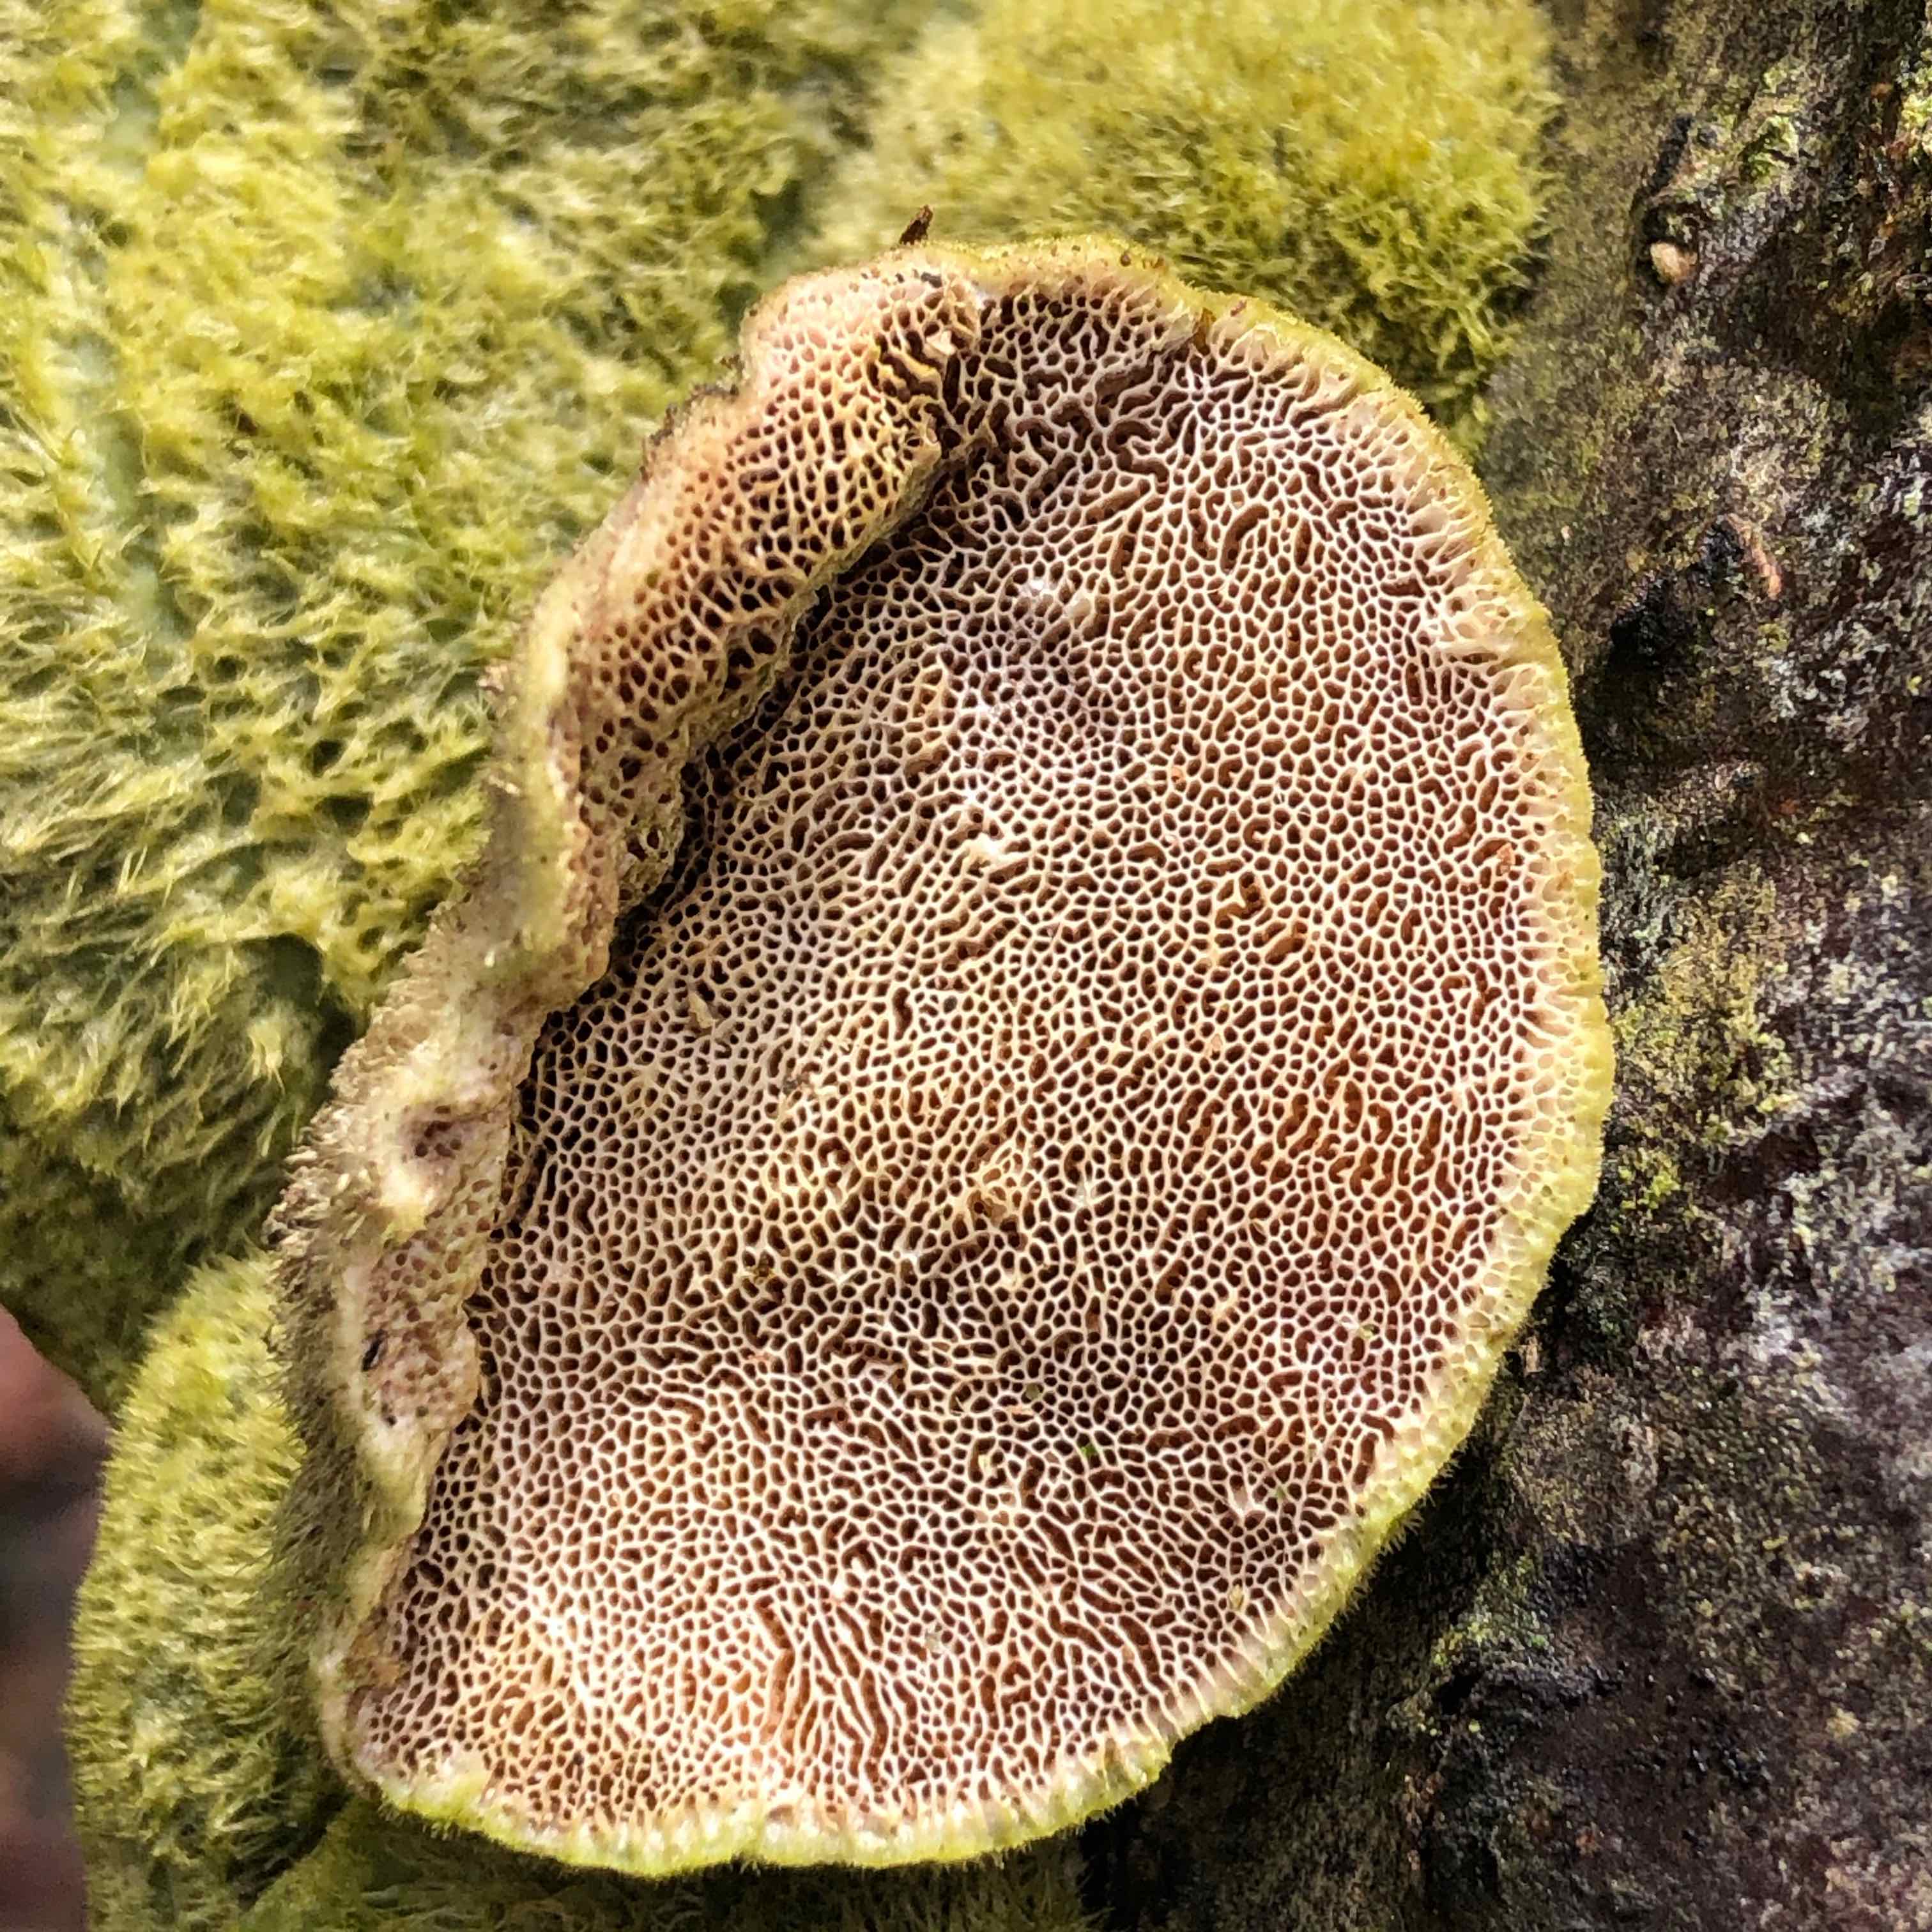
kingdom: Fungi
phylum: Basidiomycota
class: Agaricomycetes
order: Polyporales
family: Polyporaceae
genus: Trametes
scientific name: Trametes hirsuta
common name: håret læderporesvamp
